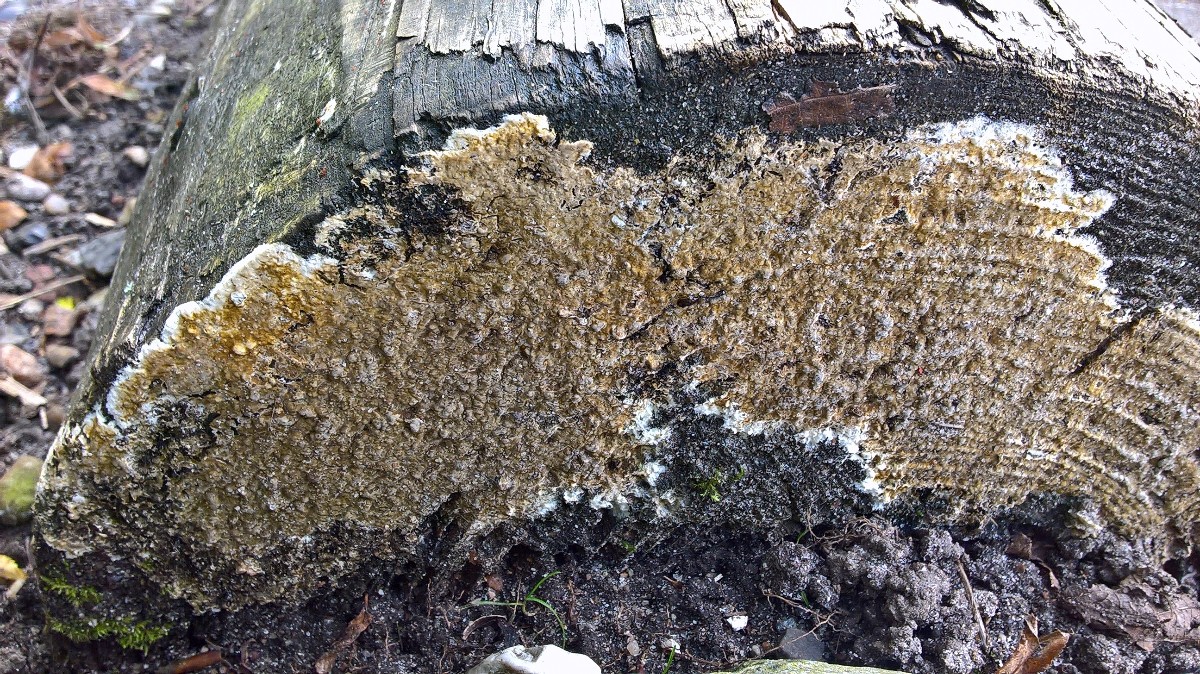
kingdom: Fungi
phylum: Basidiomycota
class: Agaricomycetes
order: Boletales
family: Coniophoraceae
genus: Coniophora
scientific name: Coniophora puteana
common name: gul tømmersvamp
